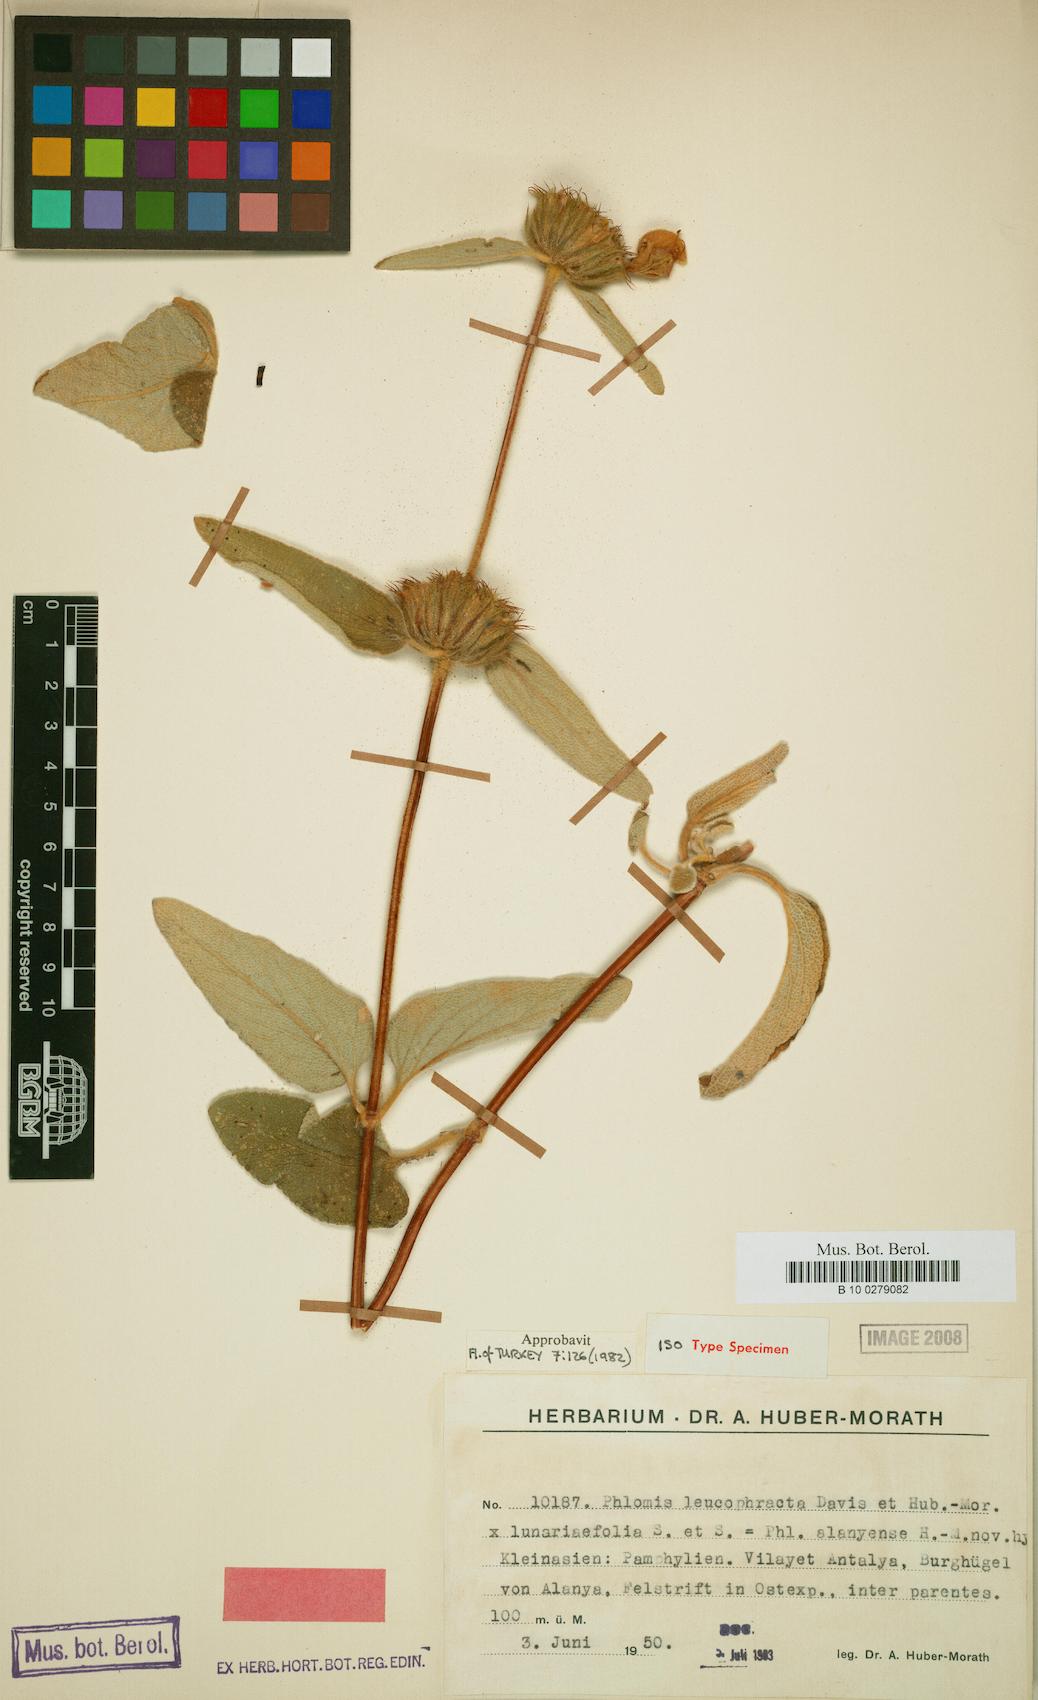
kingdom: Plantae
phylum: Tracheophyta
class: Magnoliopsida
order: Lamiales
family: Lamiaceae
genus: Phlomis
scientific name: Phlomis alanyensis
